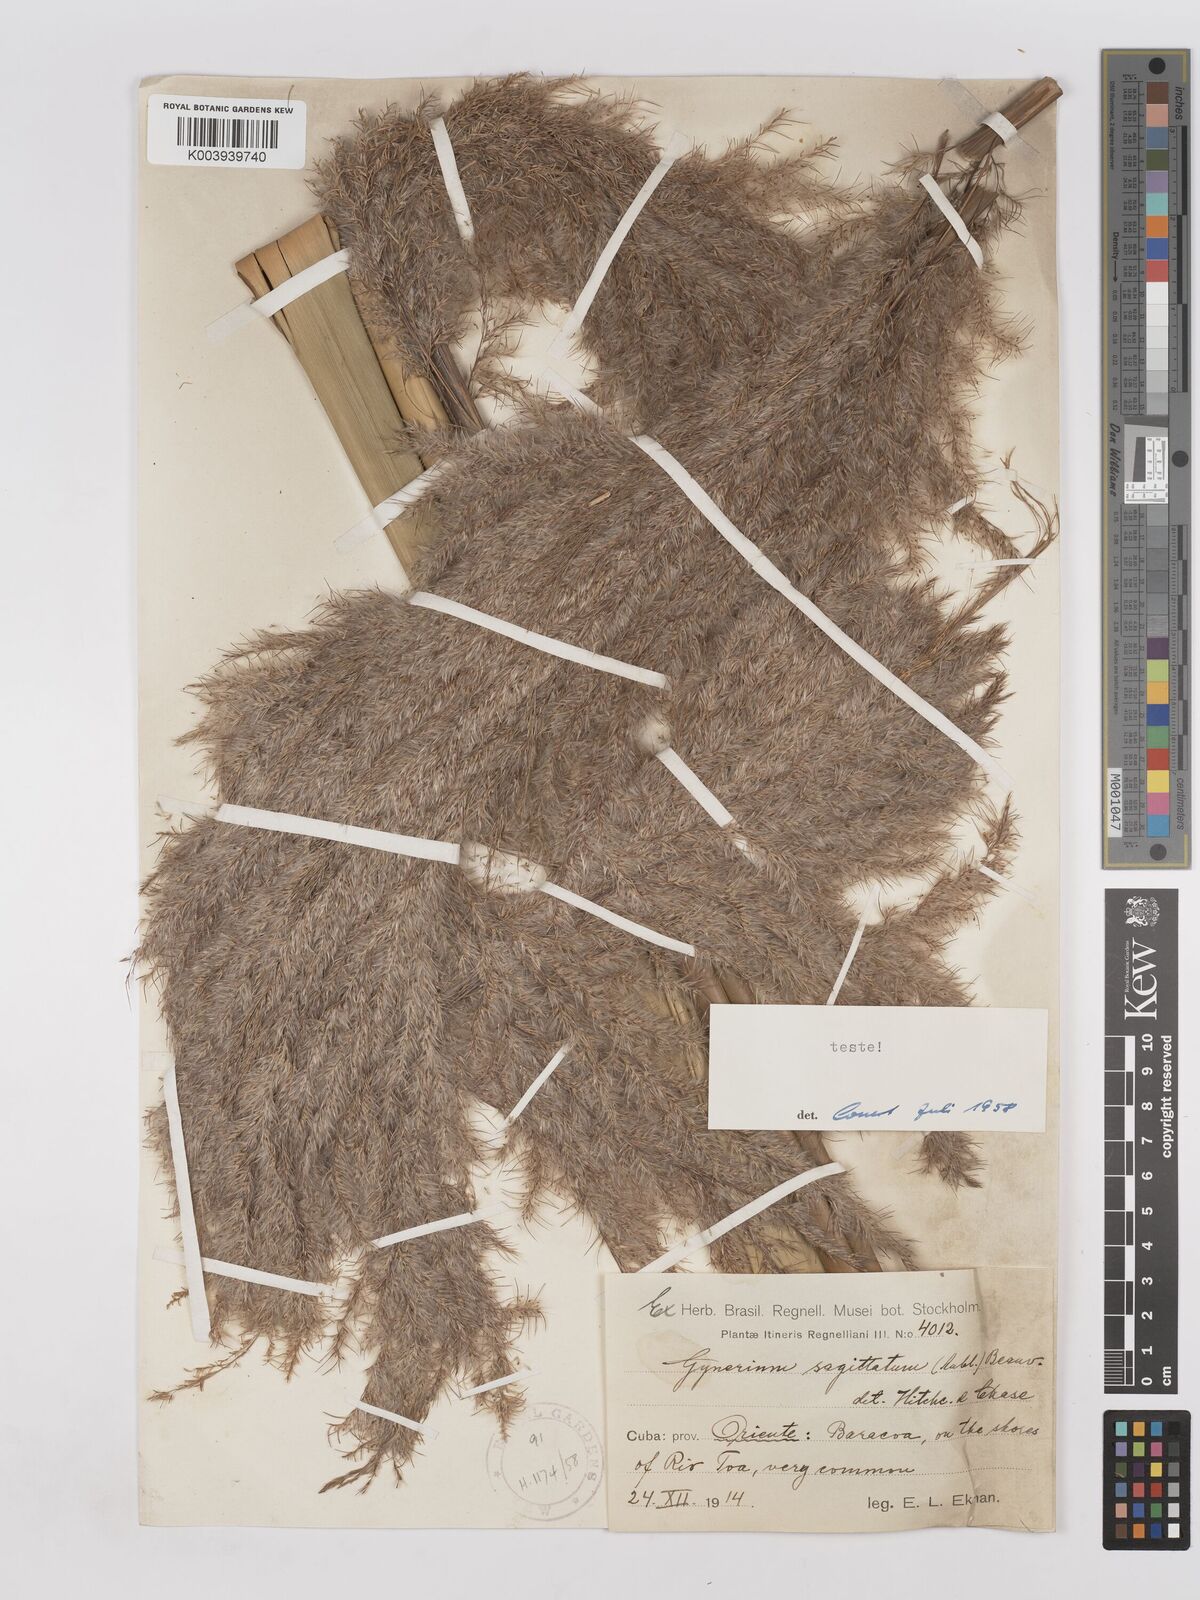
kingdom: Plantae
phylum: Tracheophyta
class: Liliopsida
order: Poales
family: Poaceae
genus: Gynerium
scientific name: Gynerium sagittatum
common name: Wild cane
